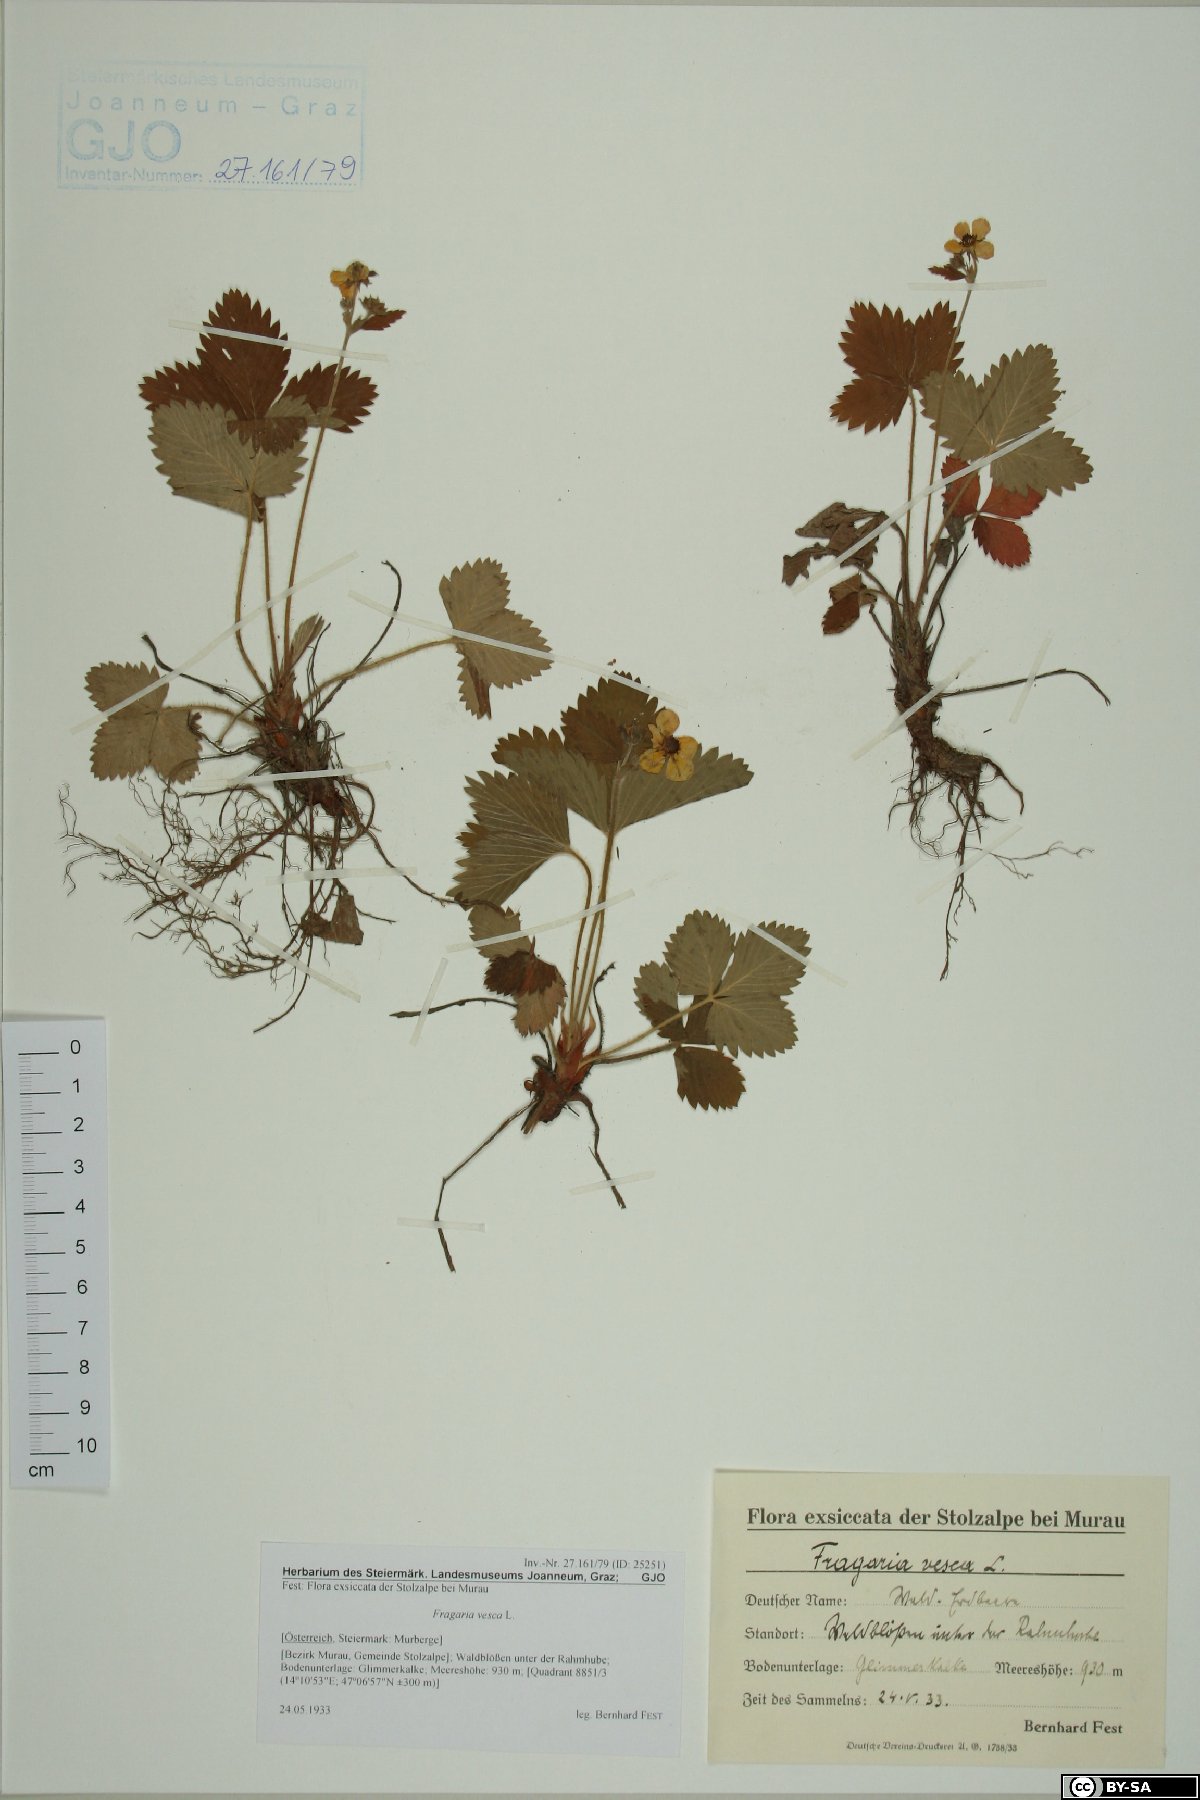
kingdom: Plantae
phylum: Tracheophyta
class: Magnoliopsida
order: Rosales
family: Rosaceae
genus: Fragaria
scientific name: Fragaria vesca
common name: Wild strawberry
